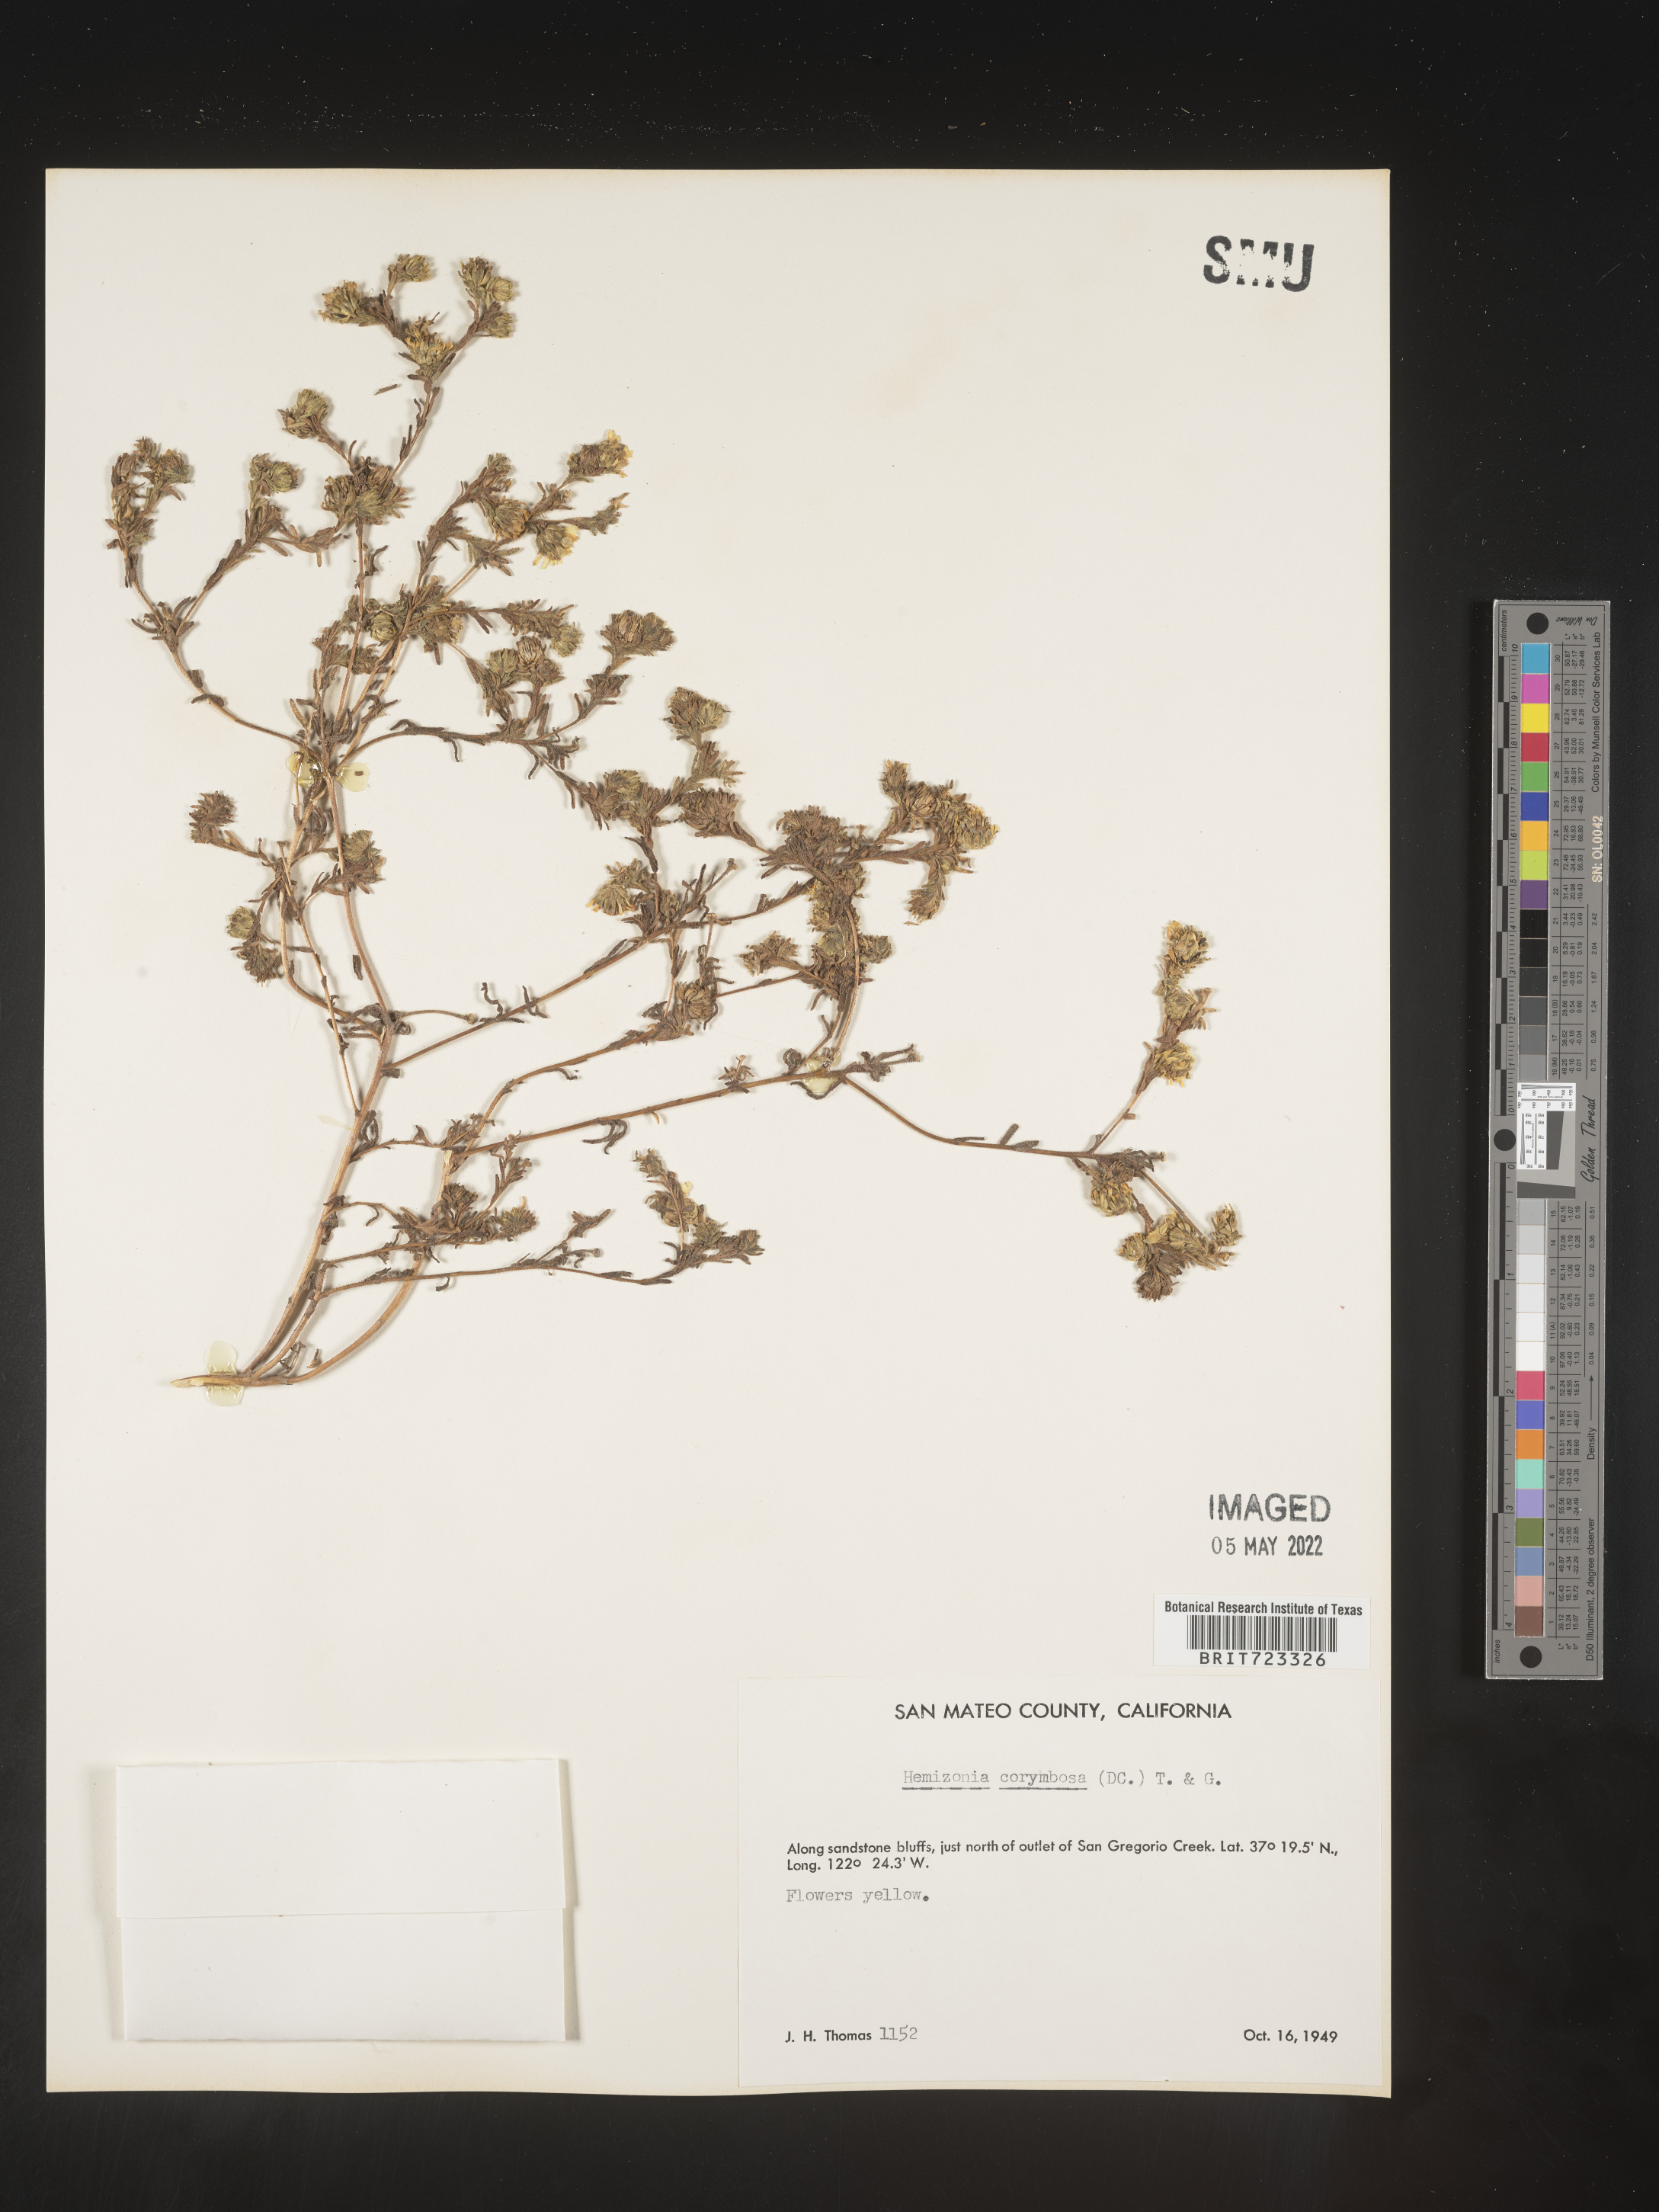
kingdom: Plantae
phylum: Tracheophyta
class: Magnoliopsida
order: Asterales
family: Asteraceae
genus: Hemizonia
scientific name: Hemizonia
